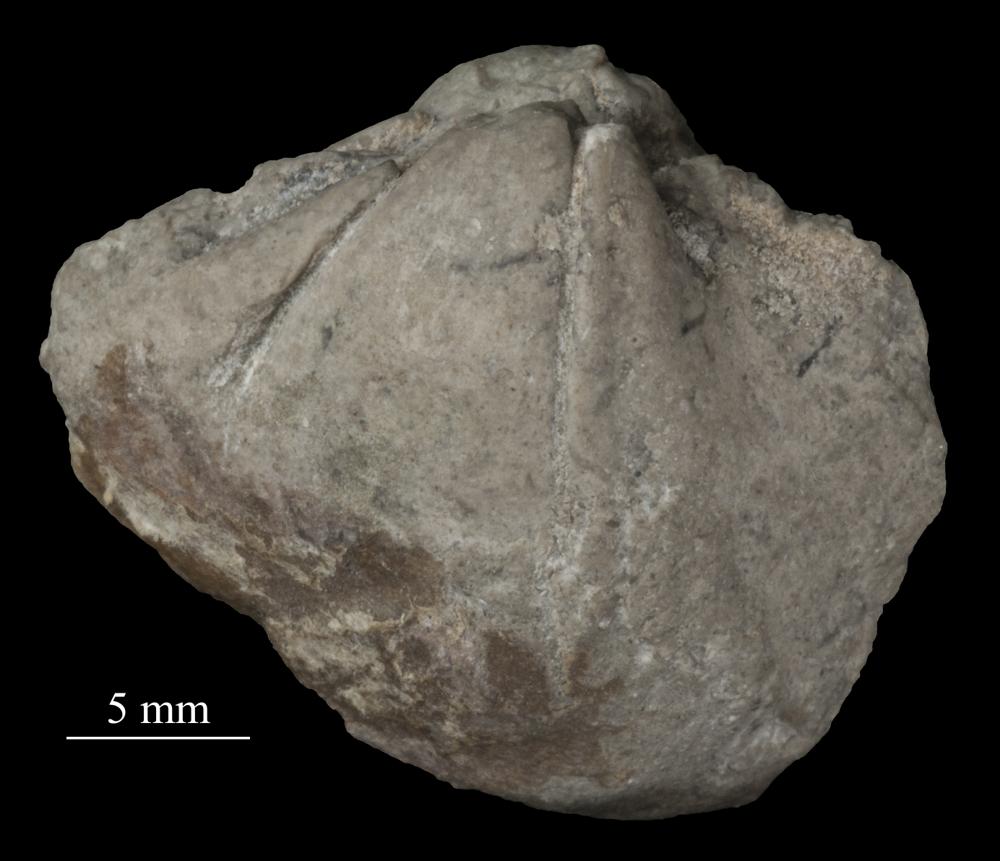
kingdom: Animalia
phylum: Mollusca
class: Bivalvia
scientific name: Bivalvia
